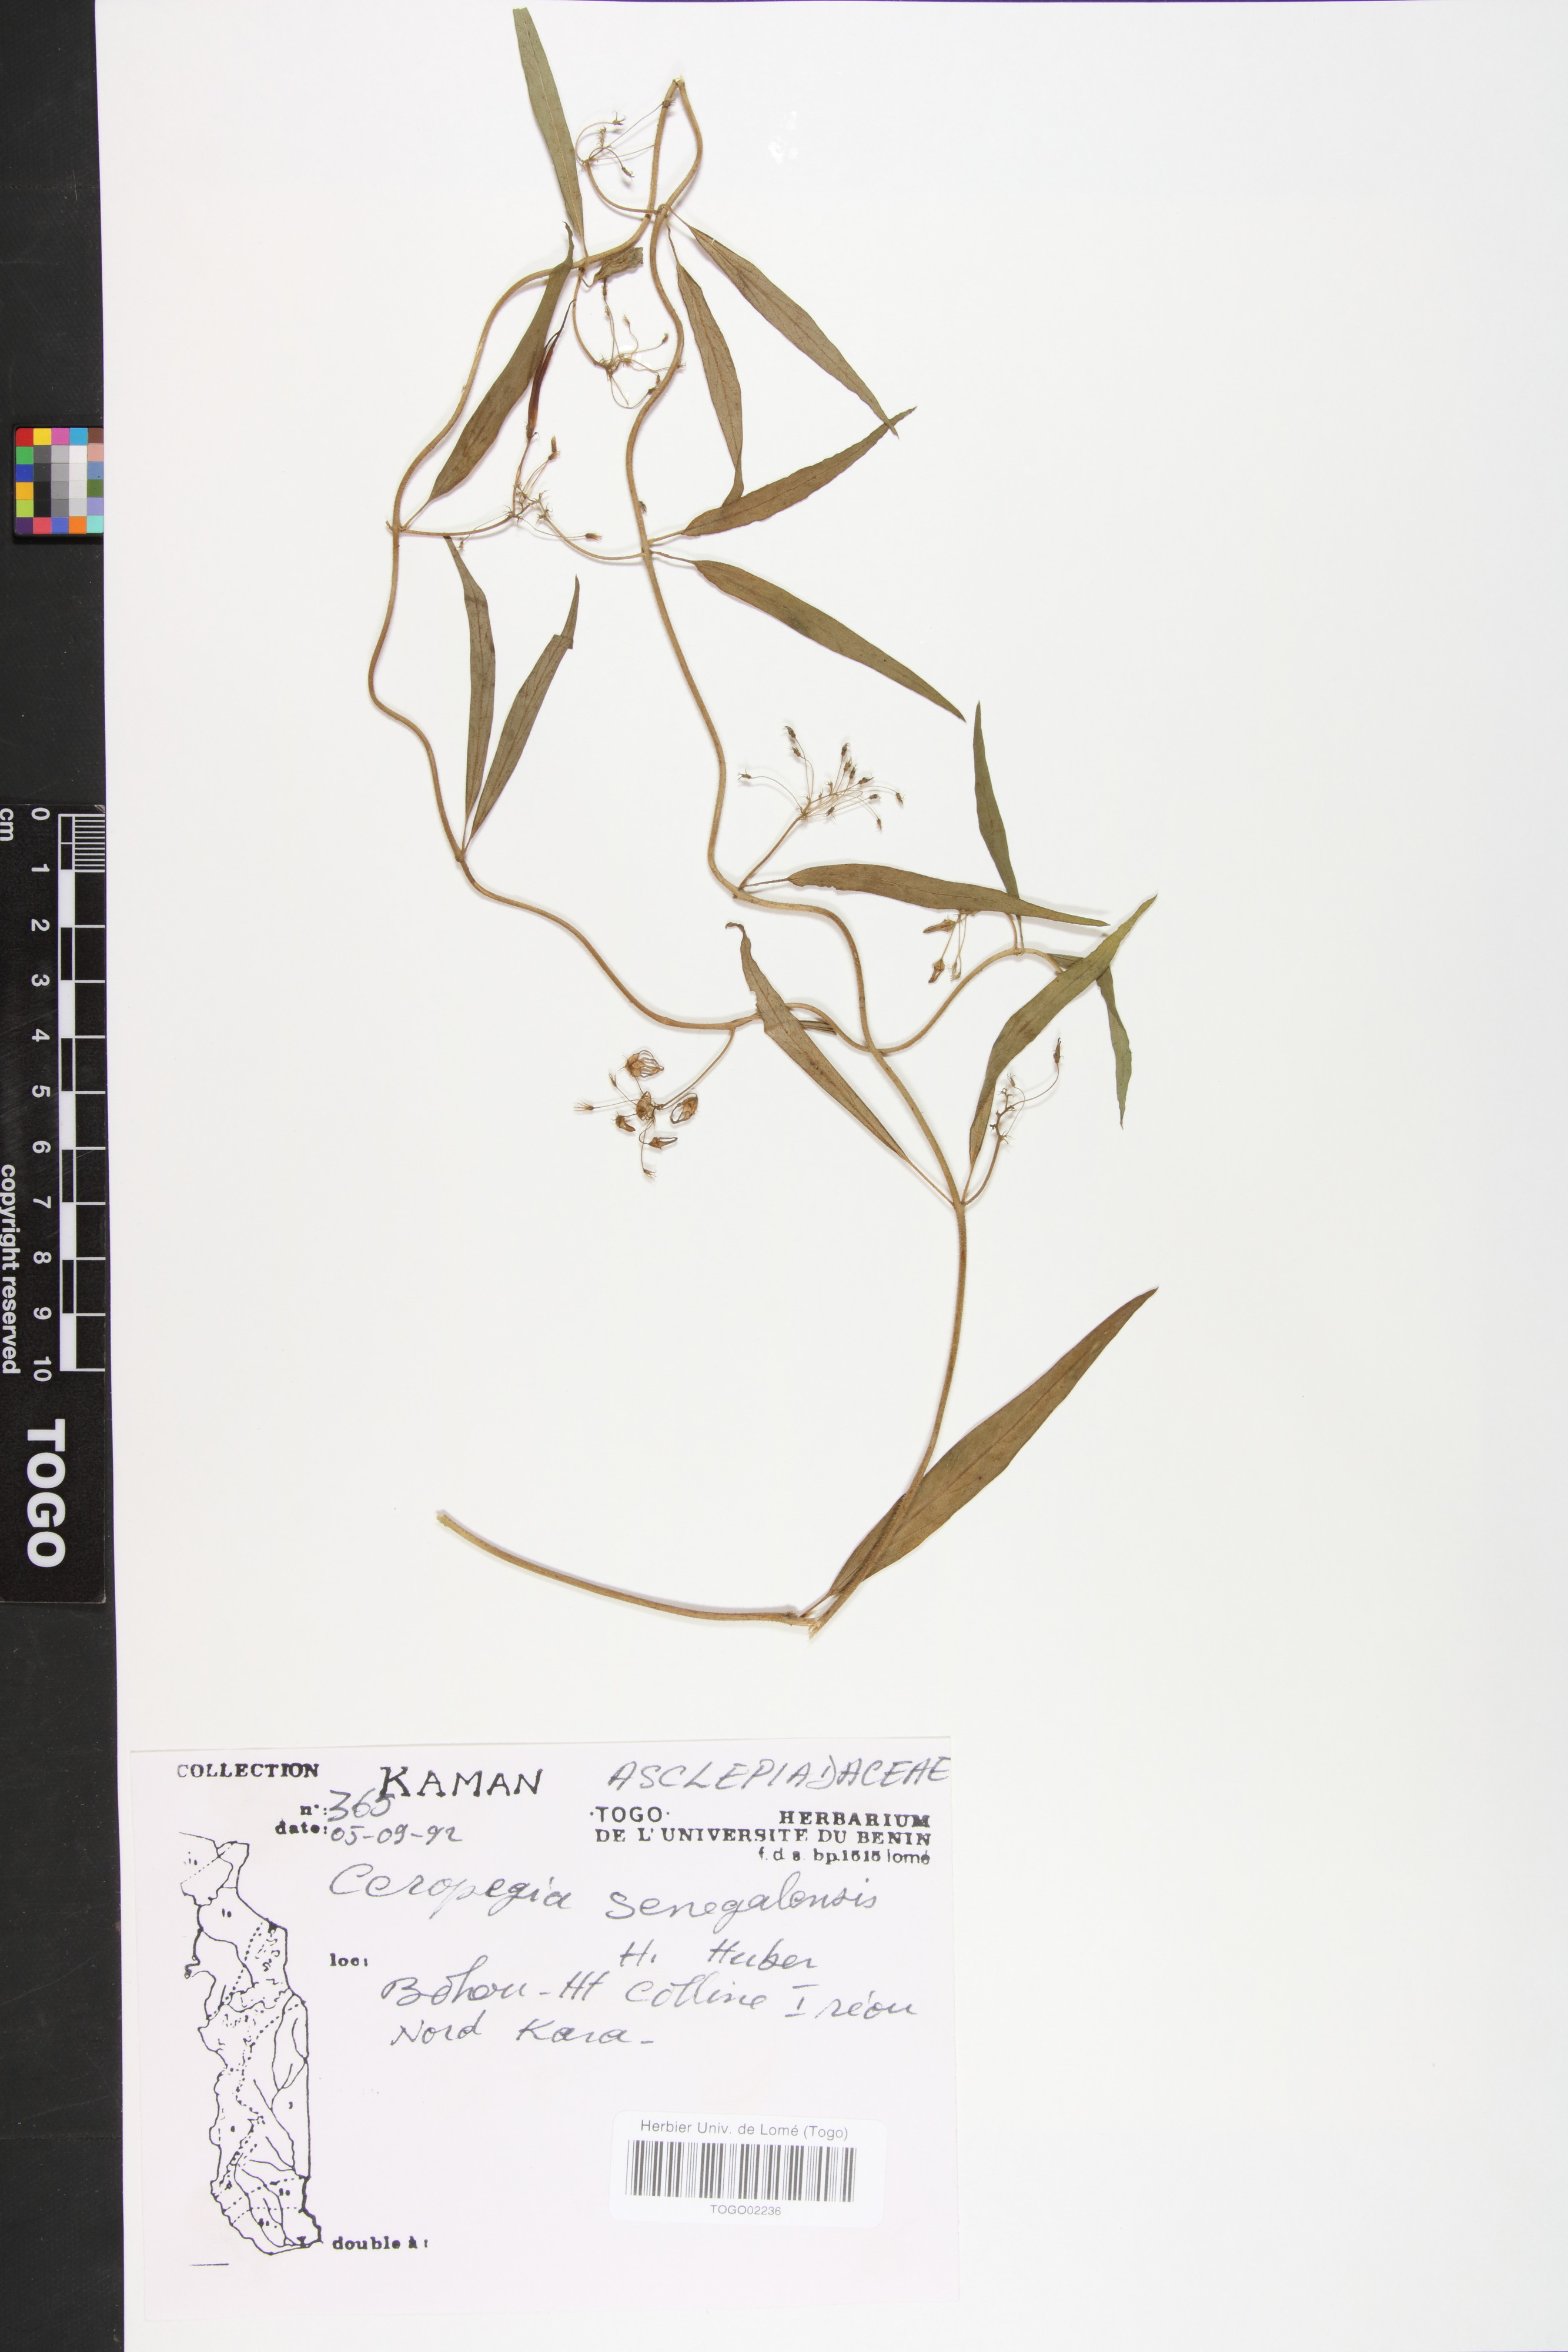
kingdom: Plantae
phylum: Tracheophyta
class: Magnoliopsida
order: Gentianales
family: Apocynaceae
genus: Ceropegia
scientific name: Ceropegia linophylla
